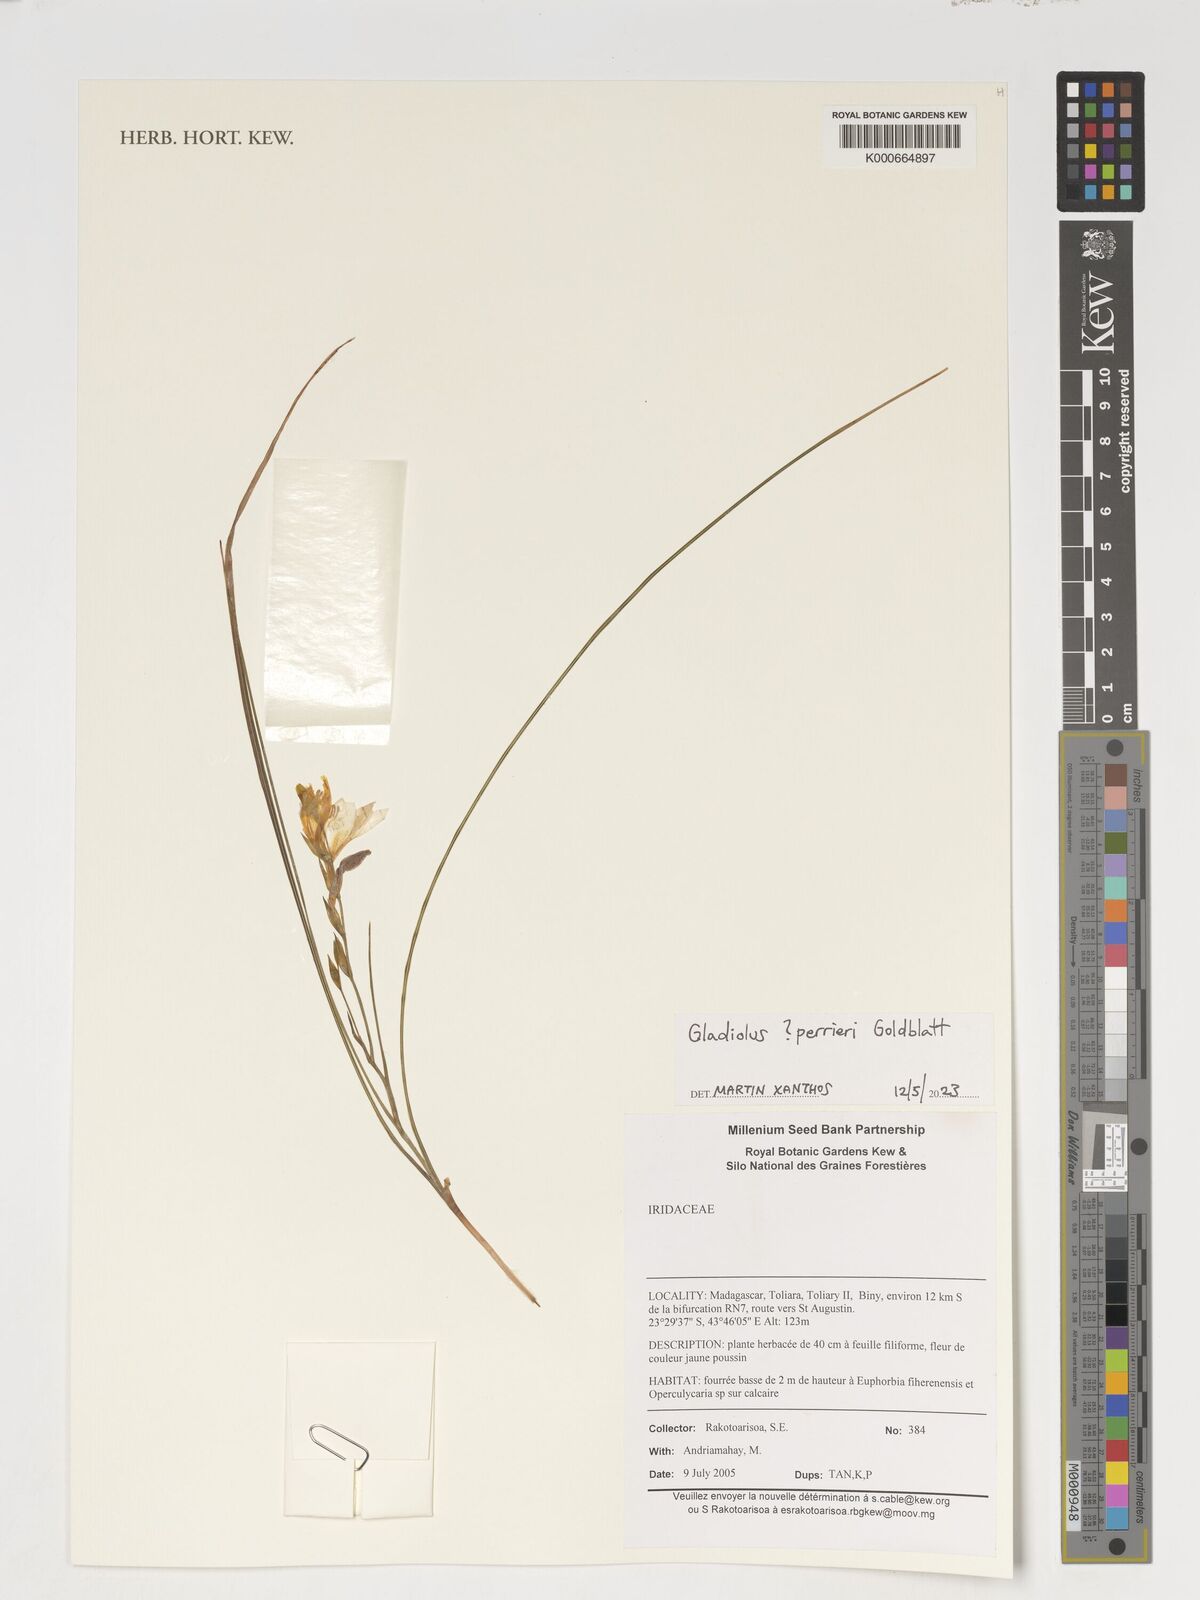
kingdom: Plantae
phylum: Tracheophyta
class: Liliopsida
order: Asparagales
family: Iridaceae
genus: Gladiolus
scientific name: Gladiolus perrieri
